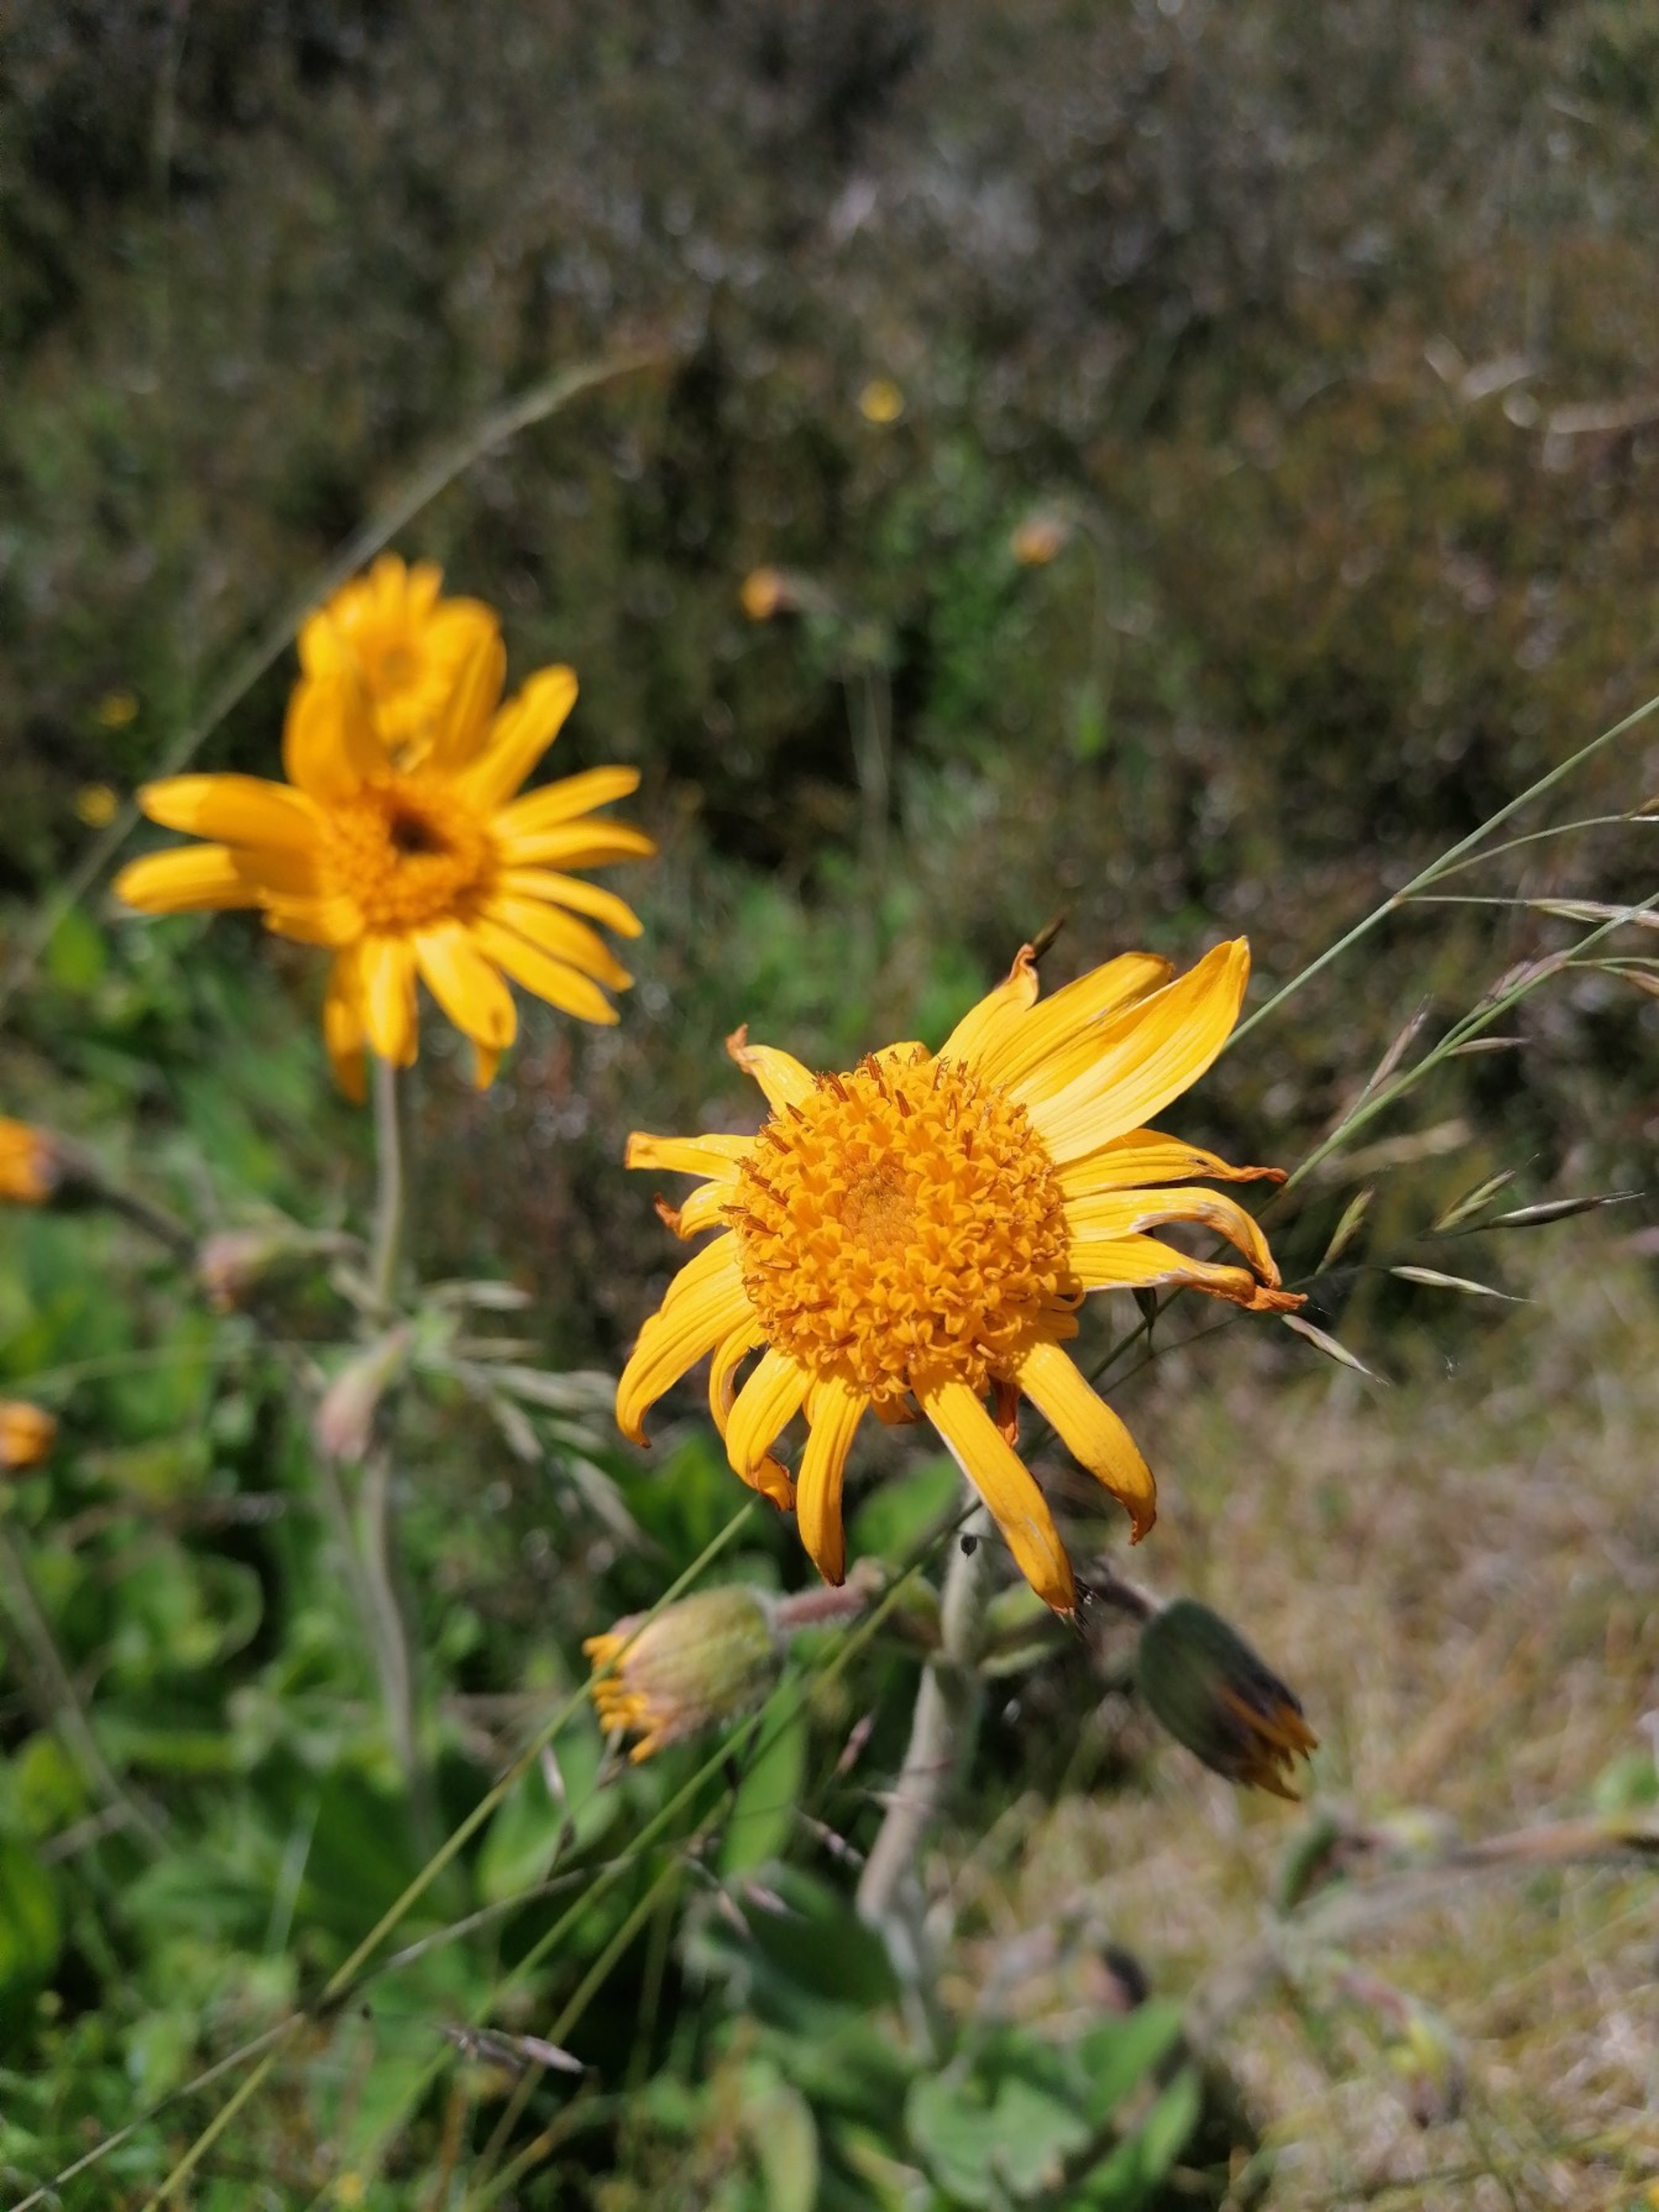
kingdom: Plantae
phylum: Tracheophyta
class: Magnoliopsida
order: Asterales
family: Asteraceae
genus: Arnica
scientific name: Arnica montana
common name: Guldblomme
